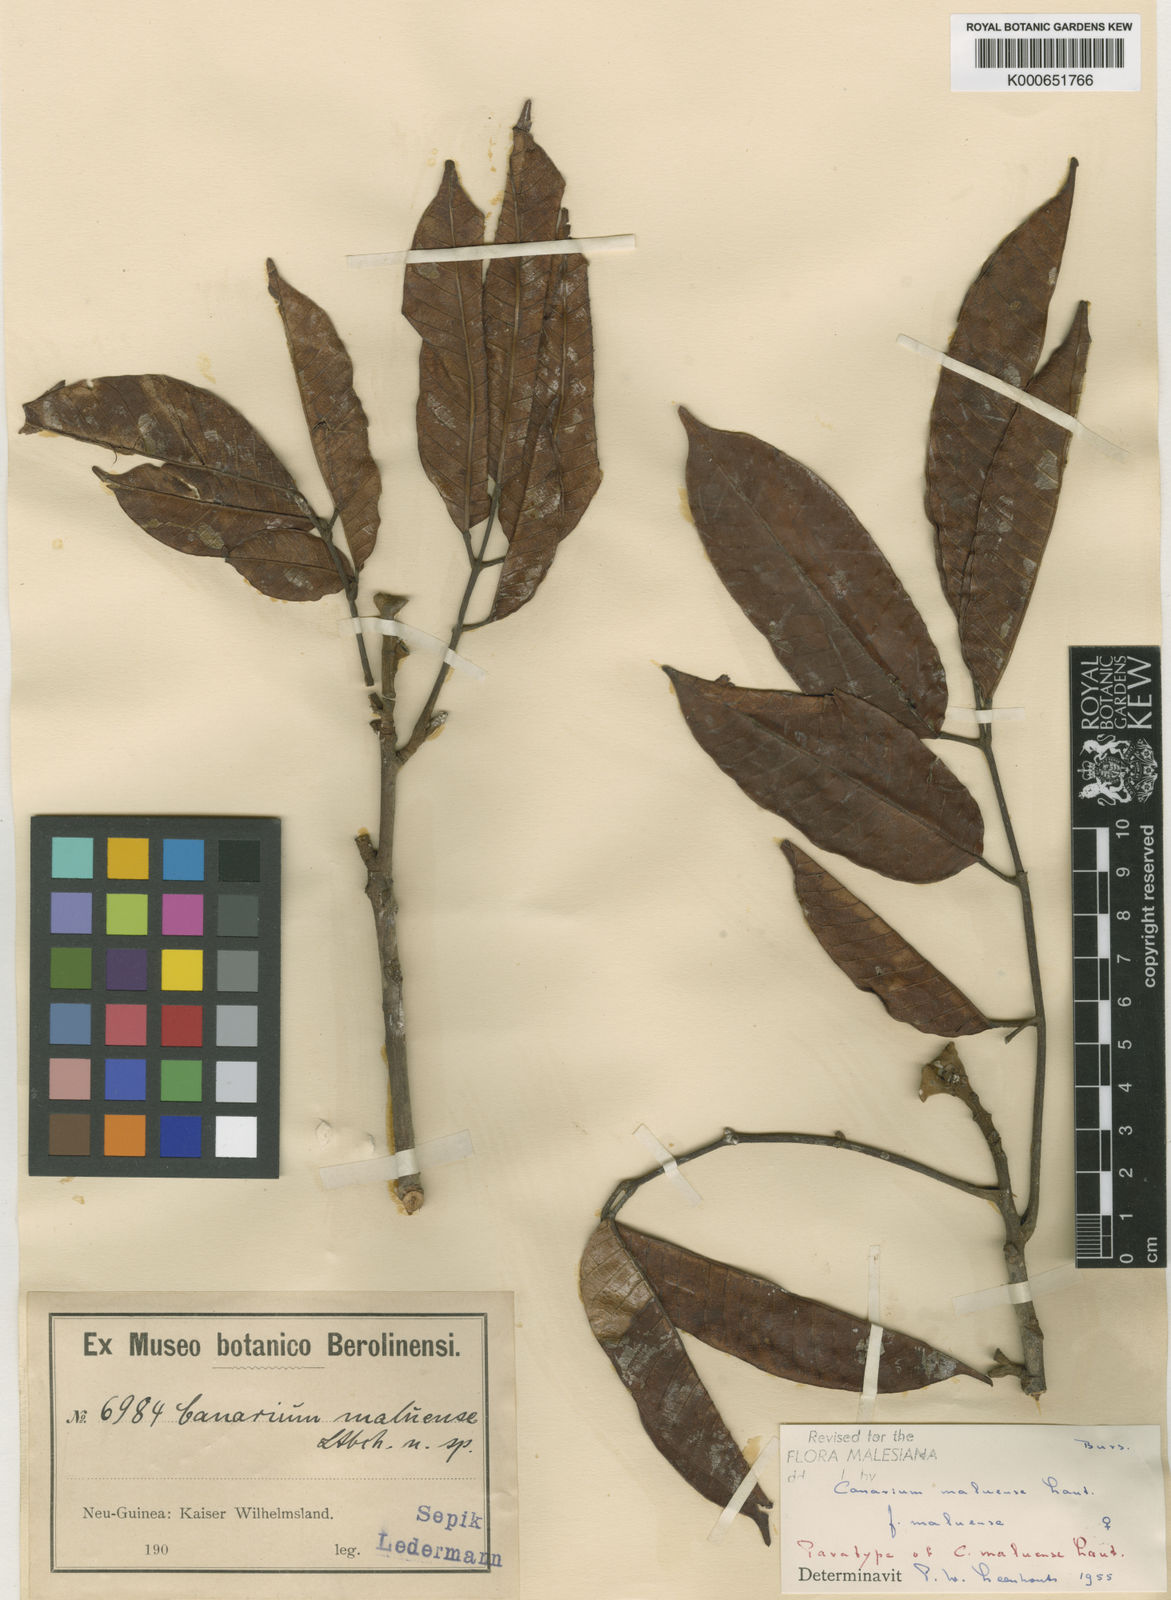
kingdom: Plantae
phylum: Tracheophyta
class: Magnoliopsida
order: Sapindales
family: Burseraceae
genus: Canarium
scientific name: Canarium maluense
